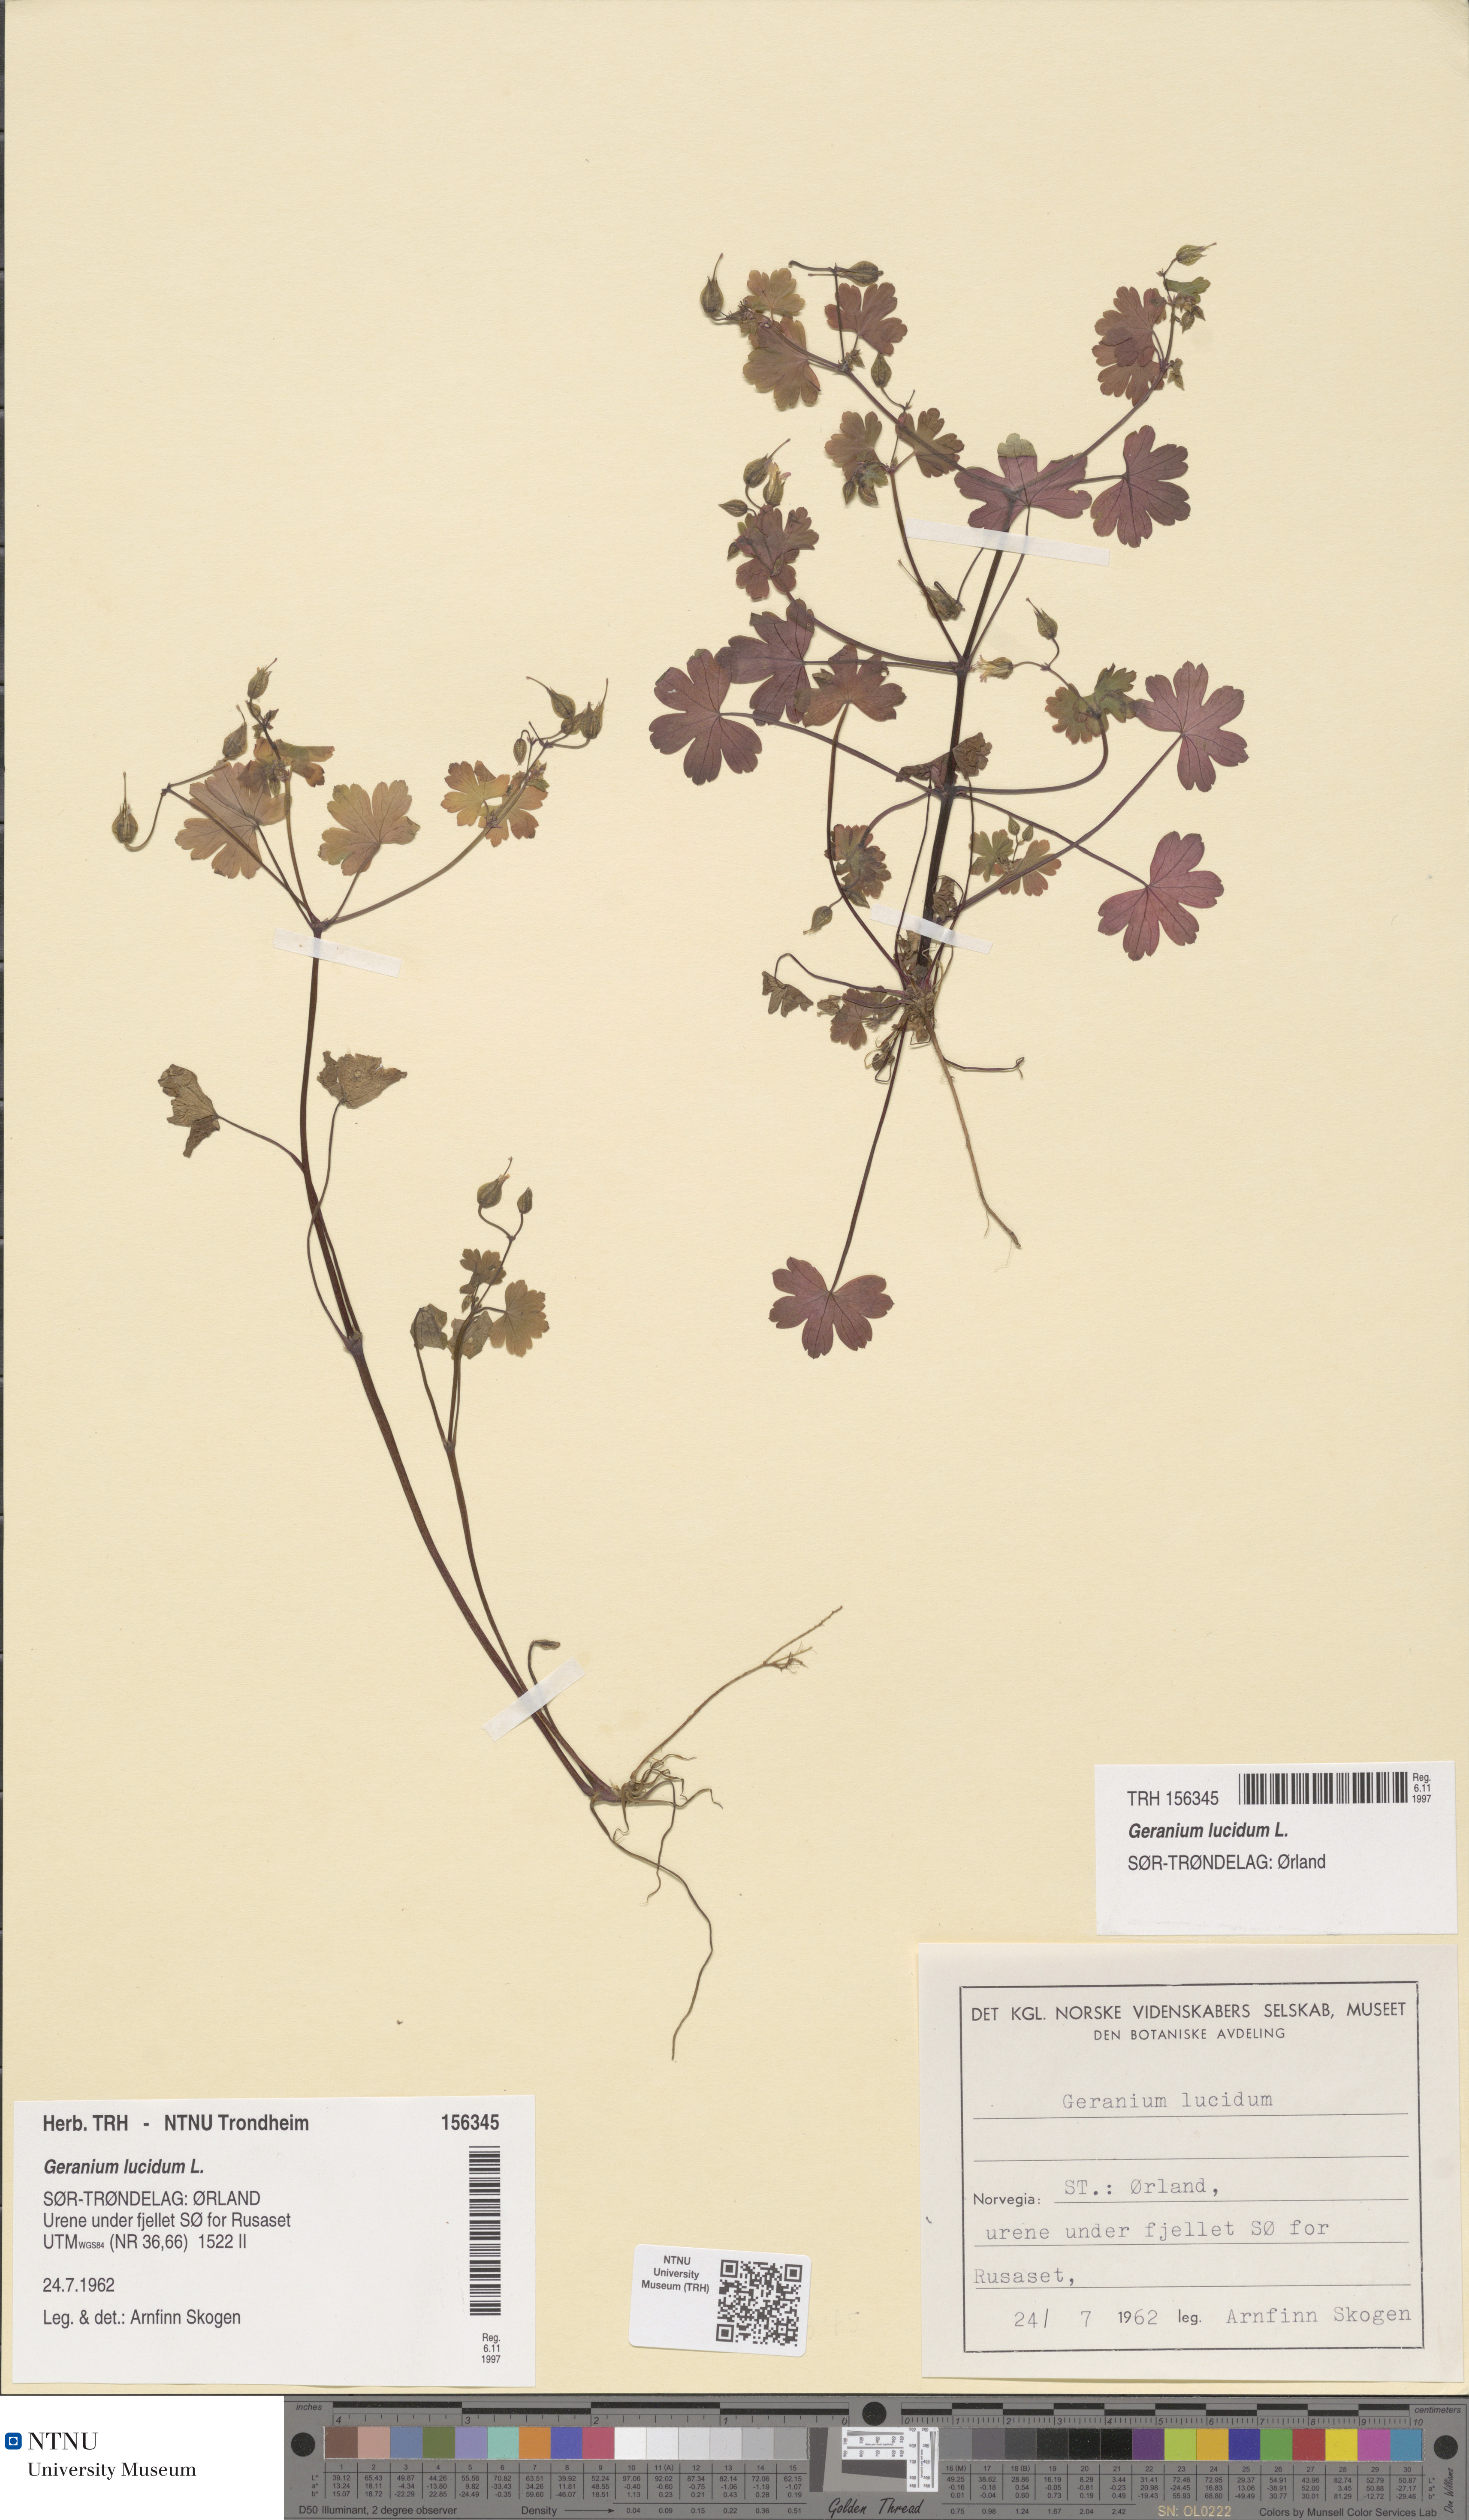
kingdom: Plantae
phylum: Tracheophyta
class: Magnoliopsida
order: Geraniales
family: Geraniaceae
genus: Geranium
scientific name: Geranium lucidum
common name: Shining crane's-bill
